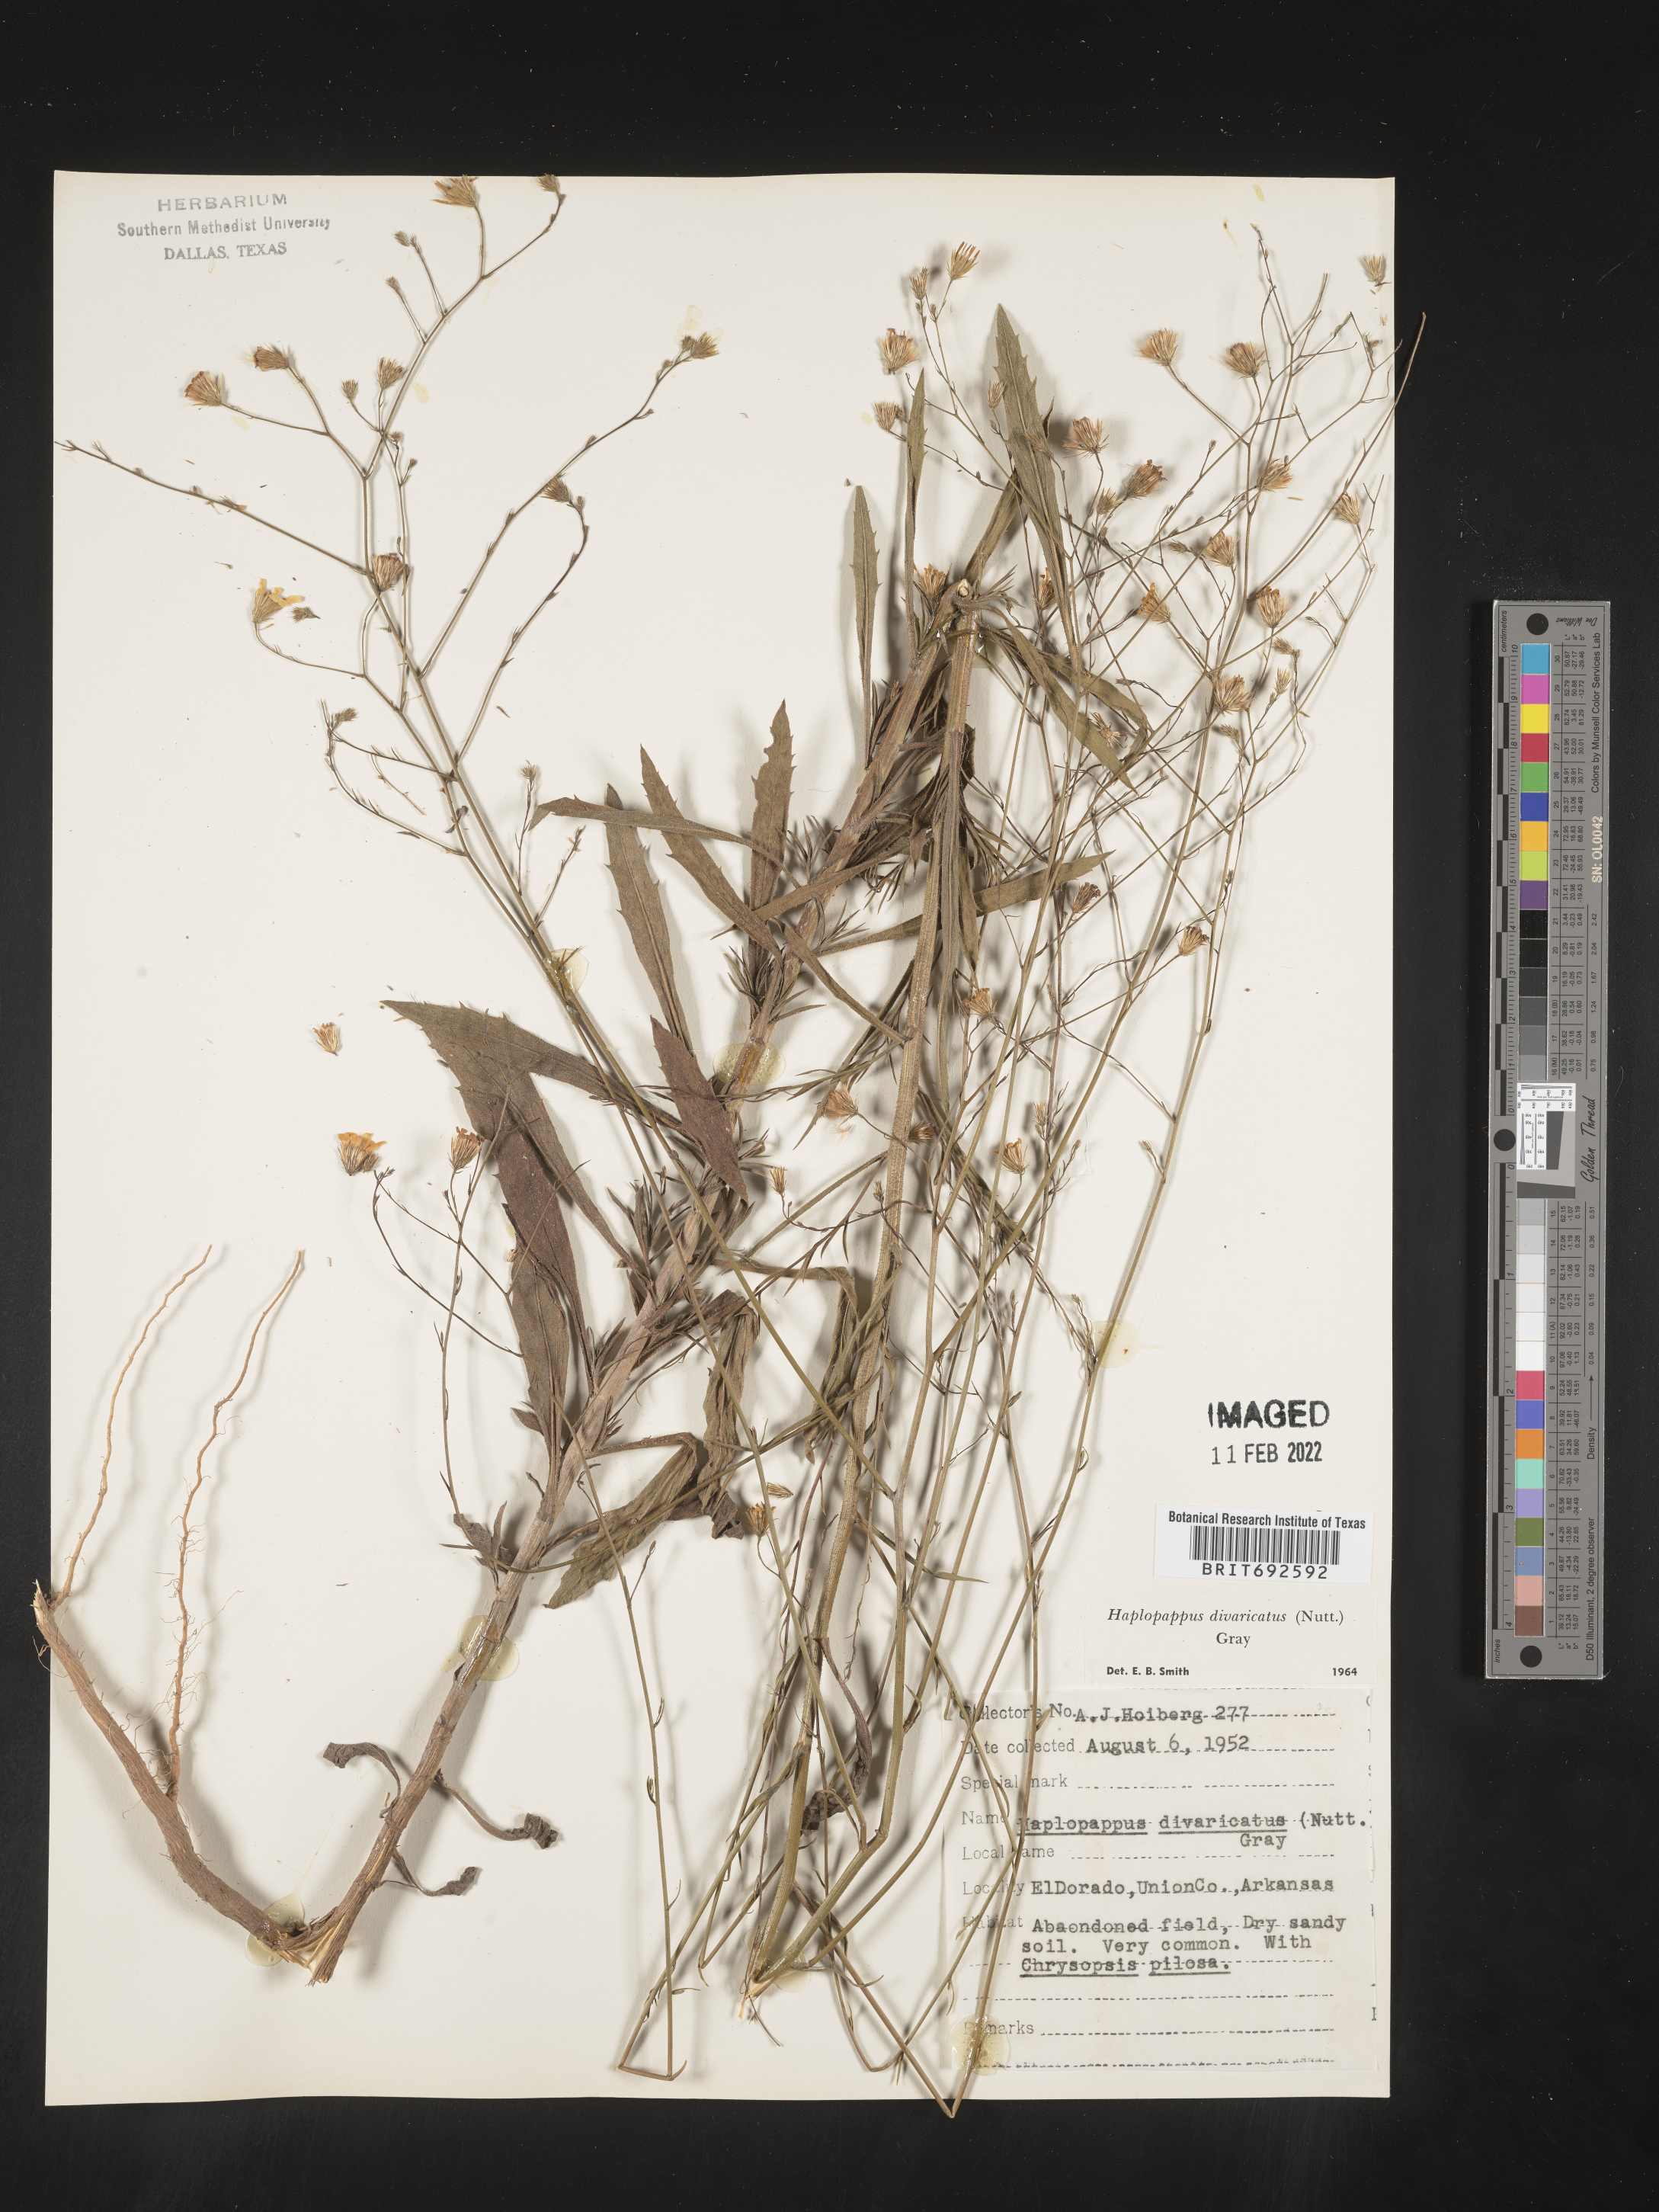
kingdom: Plantae
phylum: Tracheophyta
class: Magnoliopsida
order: Asterales
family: Asteraceae
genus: Croptilon
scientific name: Croptilon divaricatum
